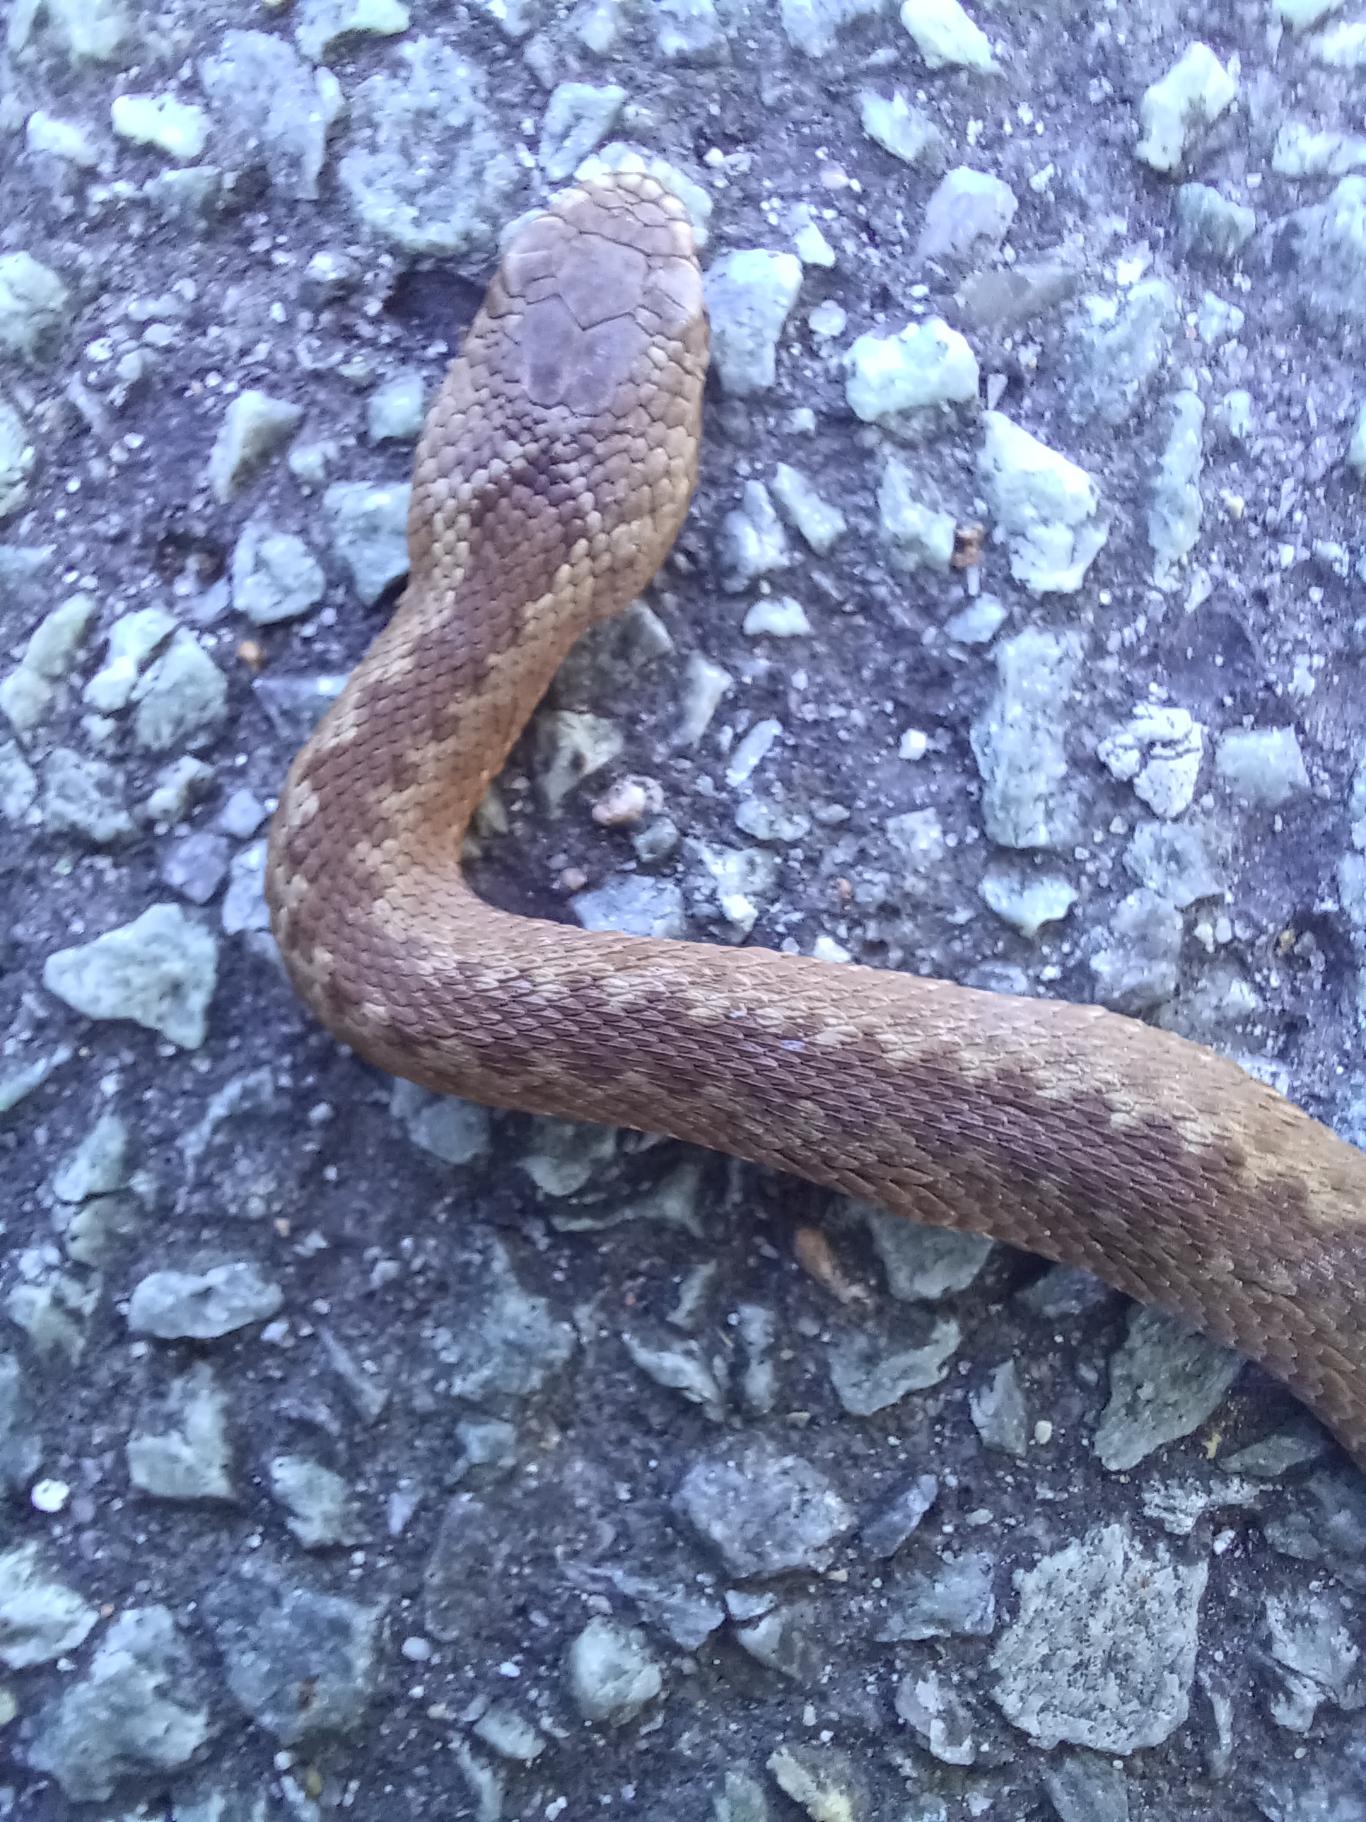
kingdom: Animalia
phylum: Chordata
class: Squamata
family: Viperidae
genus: Vipera
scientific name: Vipera berus
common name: Hugorm
